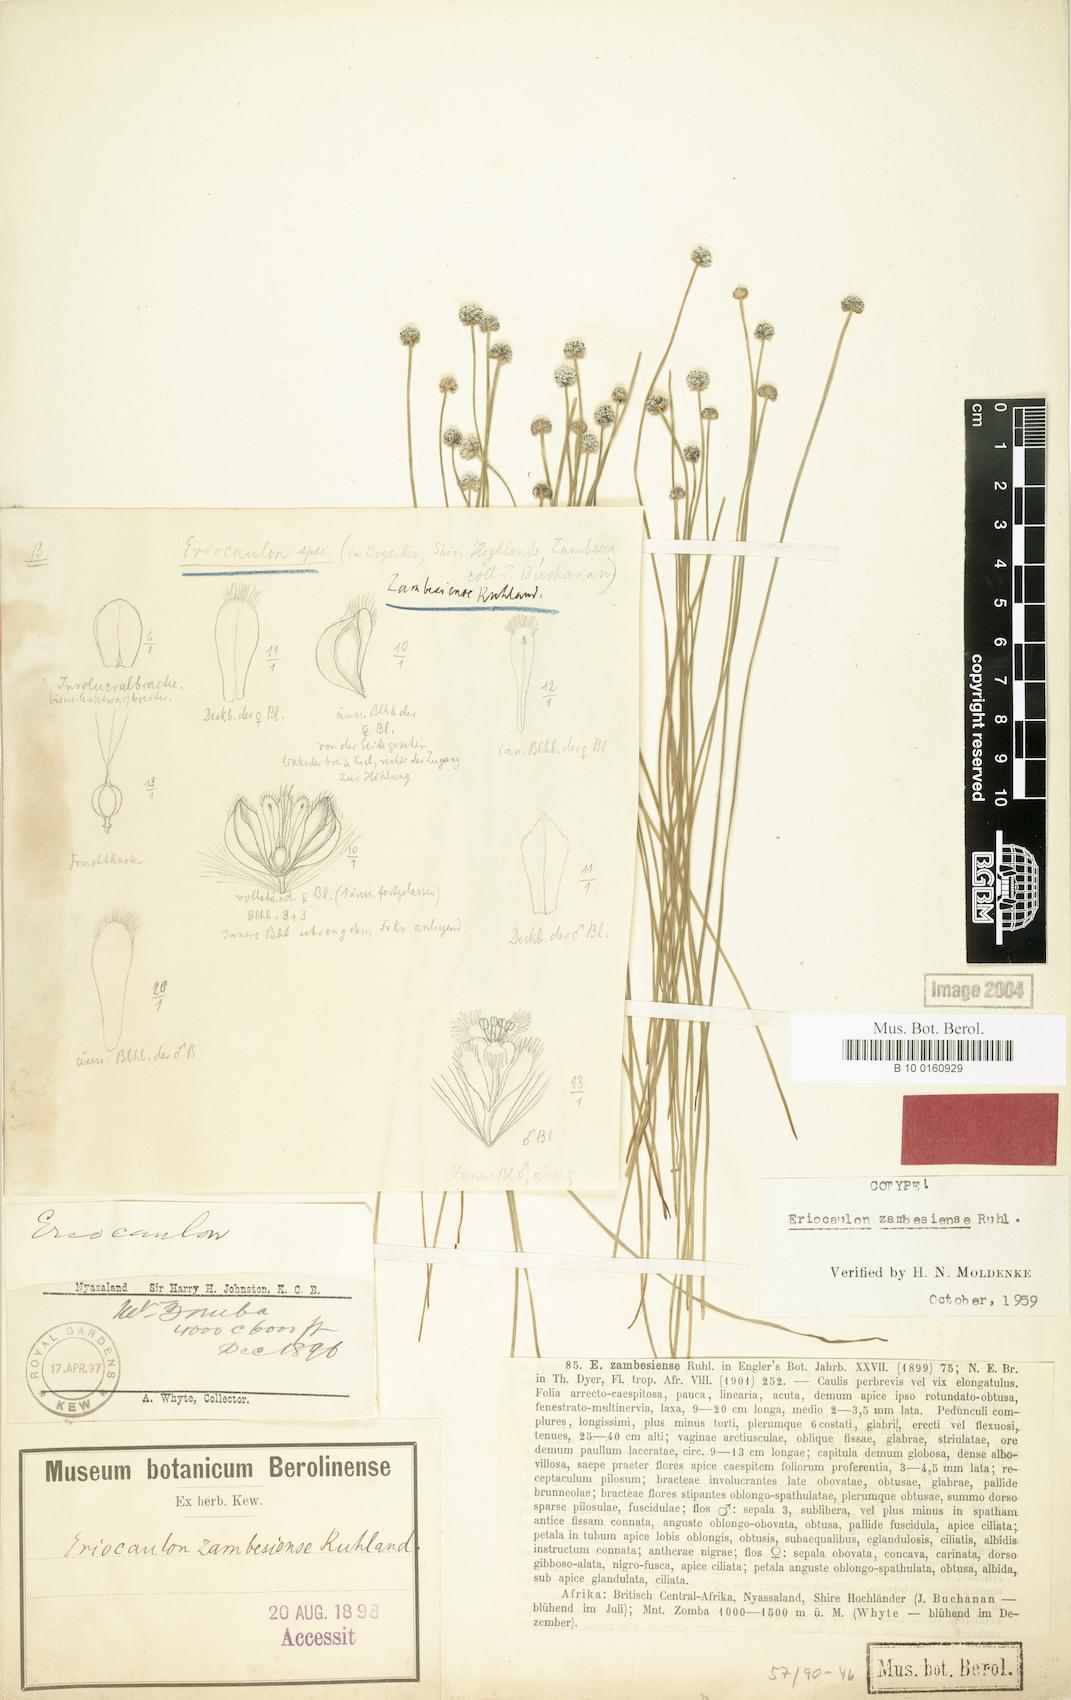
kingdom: Plantae
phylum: Tracheophyta
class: Liliopsida
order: Poales
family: Eriocaulaceae
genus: Eriocaulon
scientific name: Eriocaulon zambesiense
